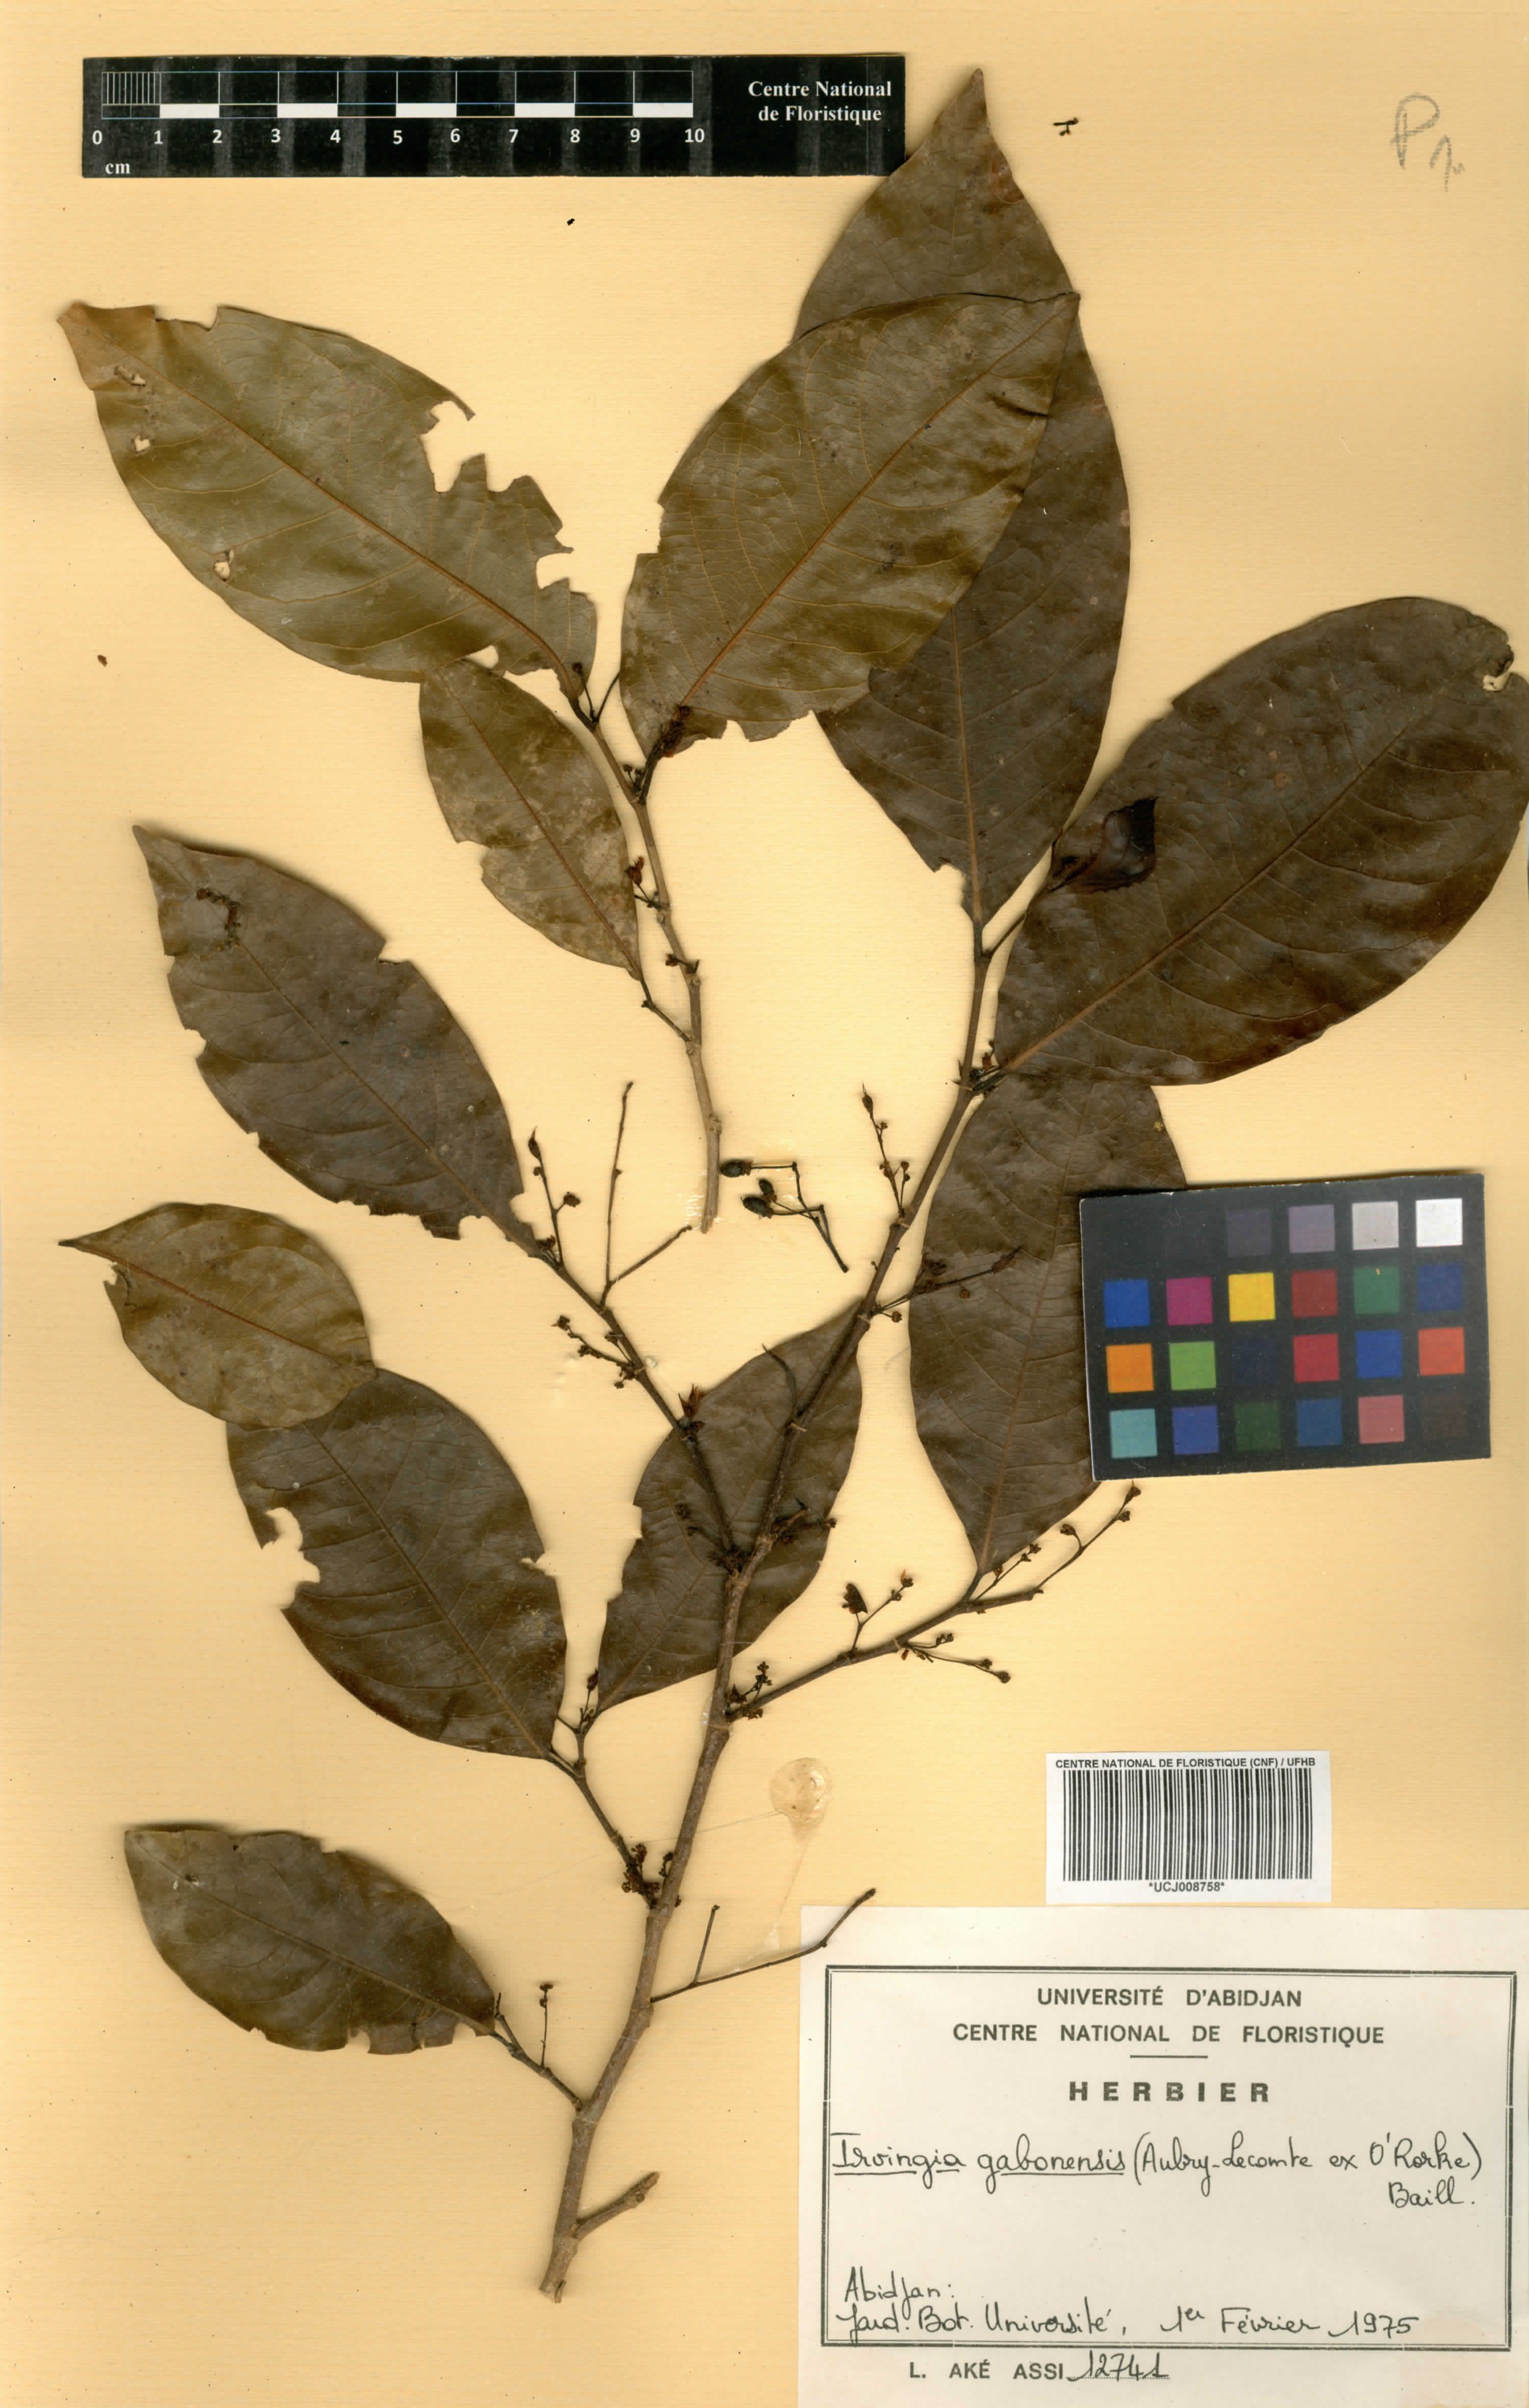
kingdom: Plantae
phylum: Tracheophyta
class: Magnoliopsida
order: Malpighiales
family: Irvingiaceae
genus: Irvingia
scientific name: Irvingia gabonensis
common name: Rainy season bush-mango
